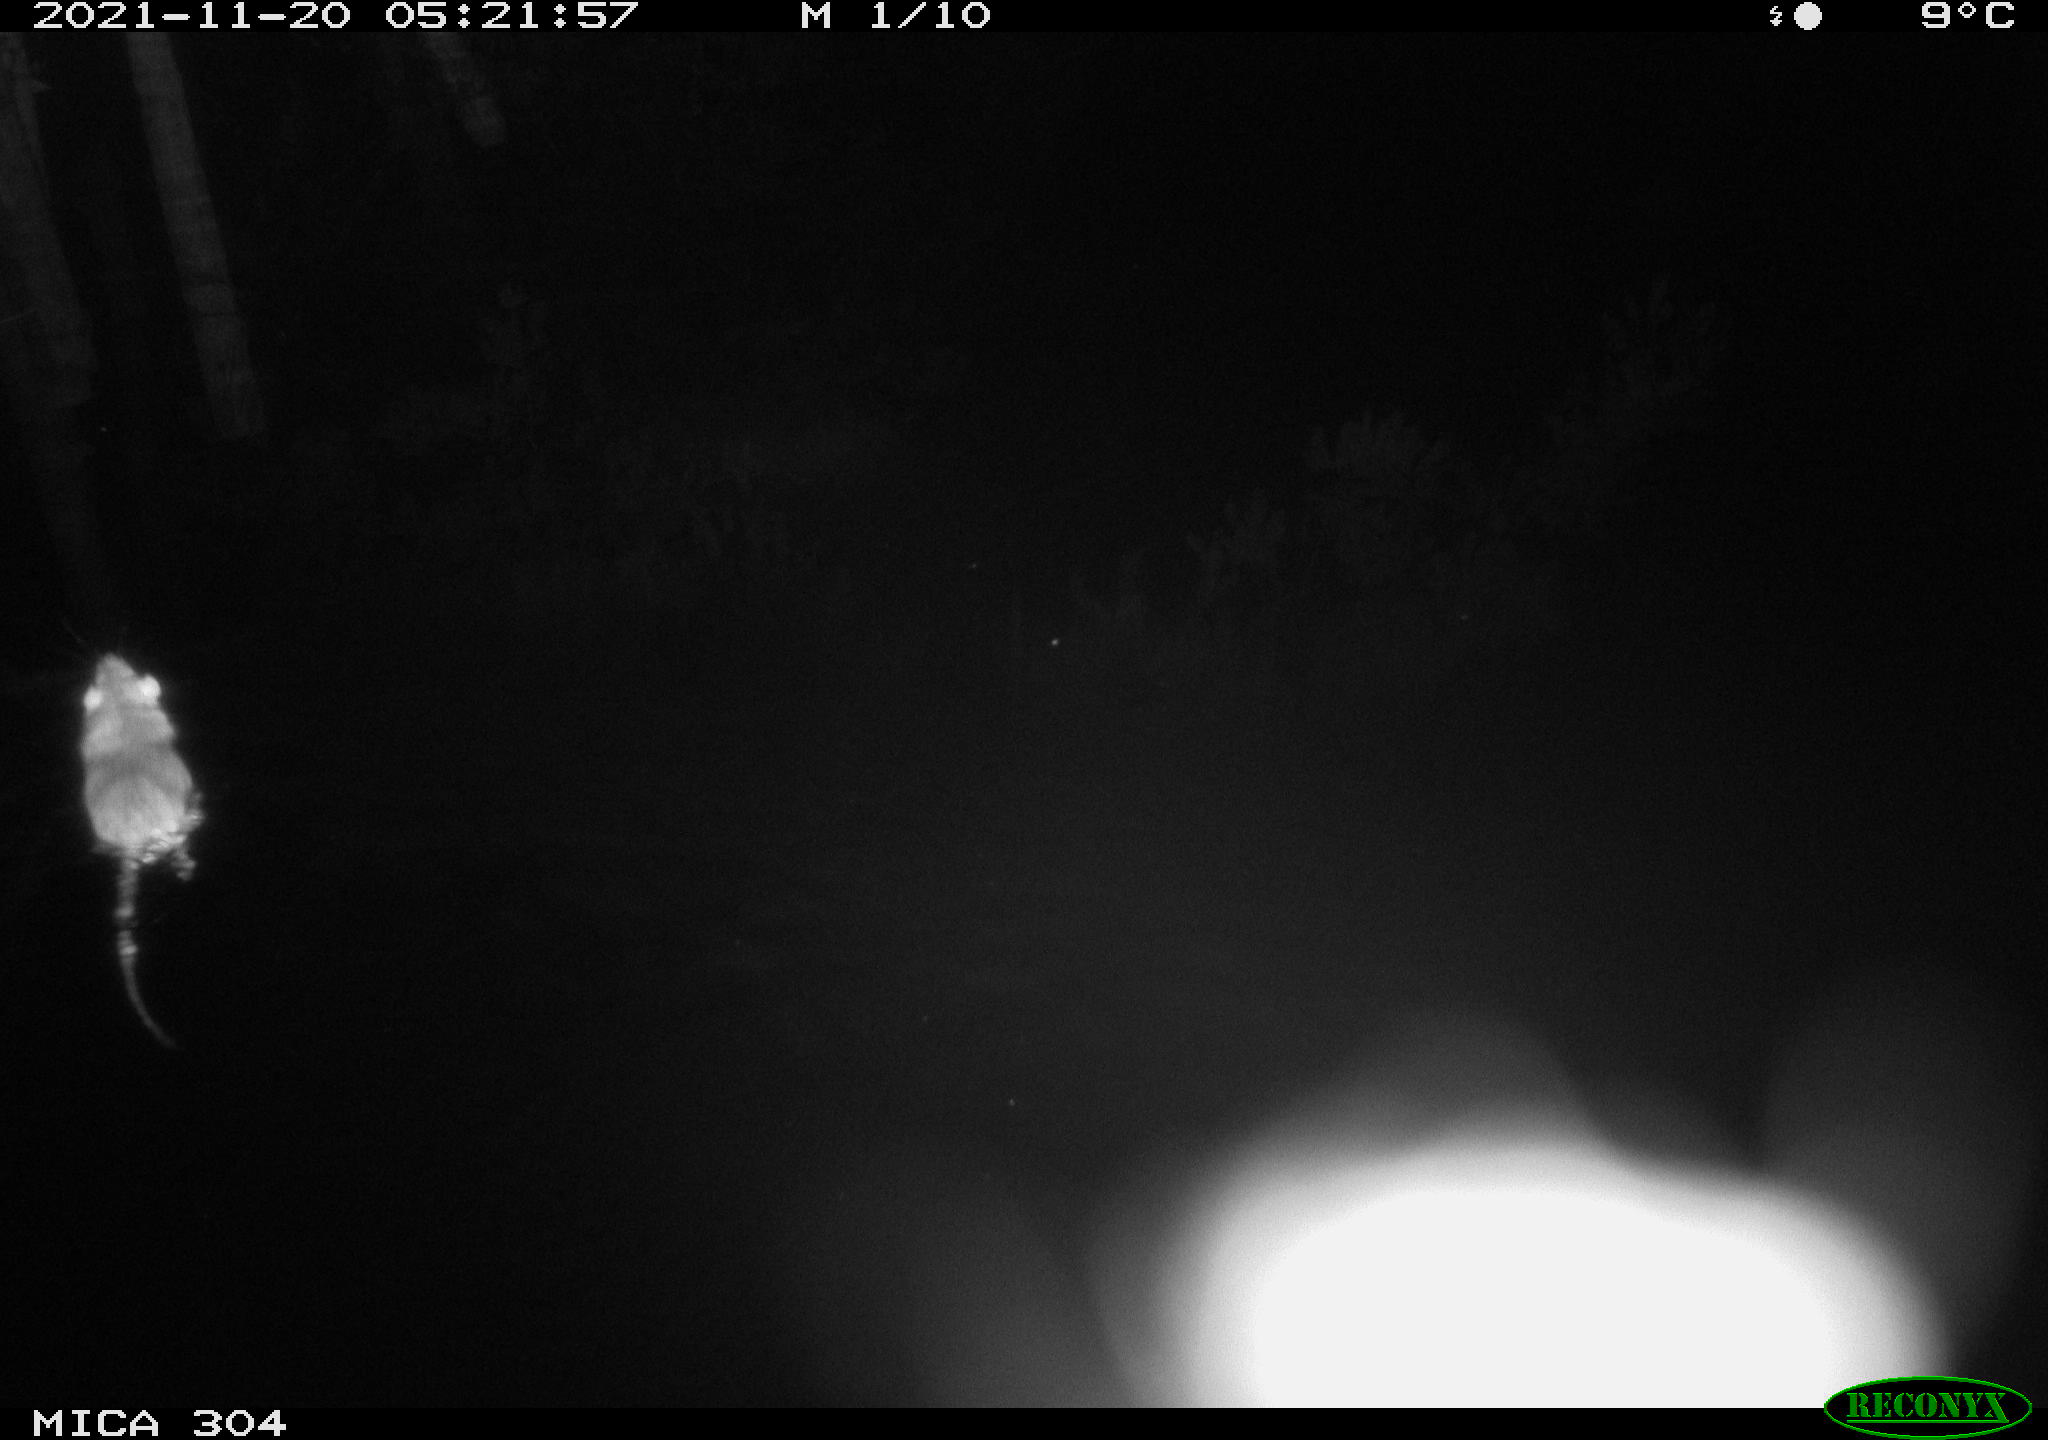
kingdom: Animalia
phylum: Chordata
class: Mammalia
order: Rodentia
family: Muridae
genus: Rattus
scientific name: Rattus norvegicus
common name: Brown rat
